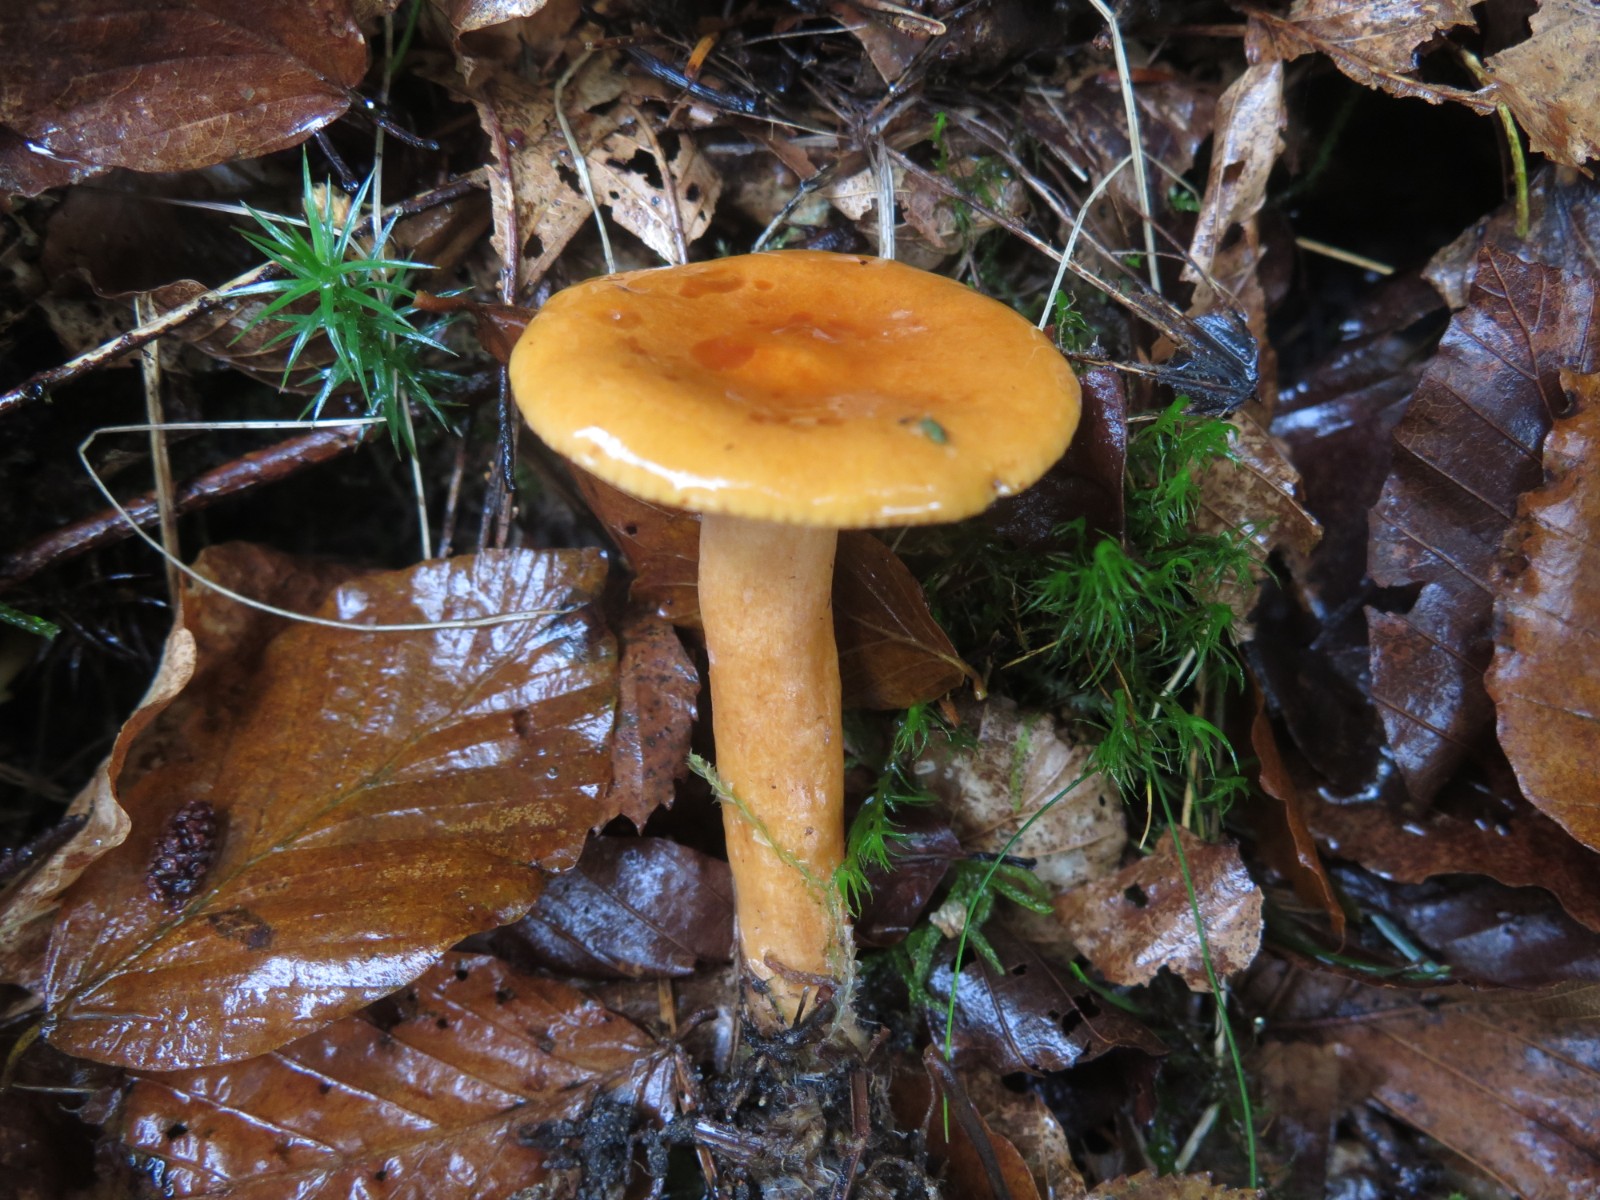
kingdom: Fungi
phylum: Basidiomycota
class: Agaricomycetes
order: Russulales
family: Russulaceae
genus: Lactarius
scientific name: Lactarius aurantiacus
